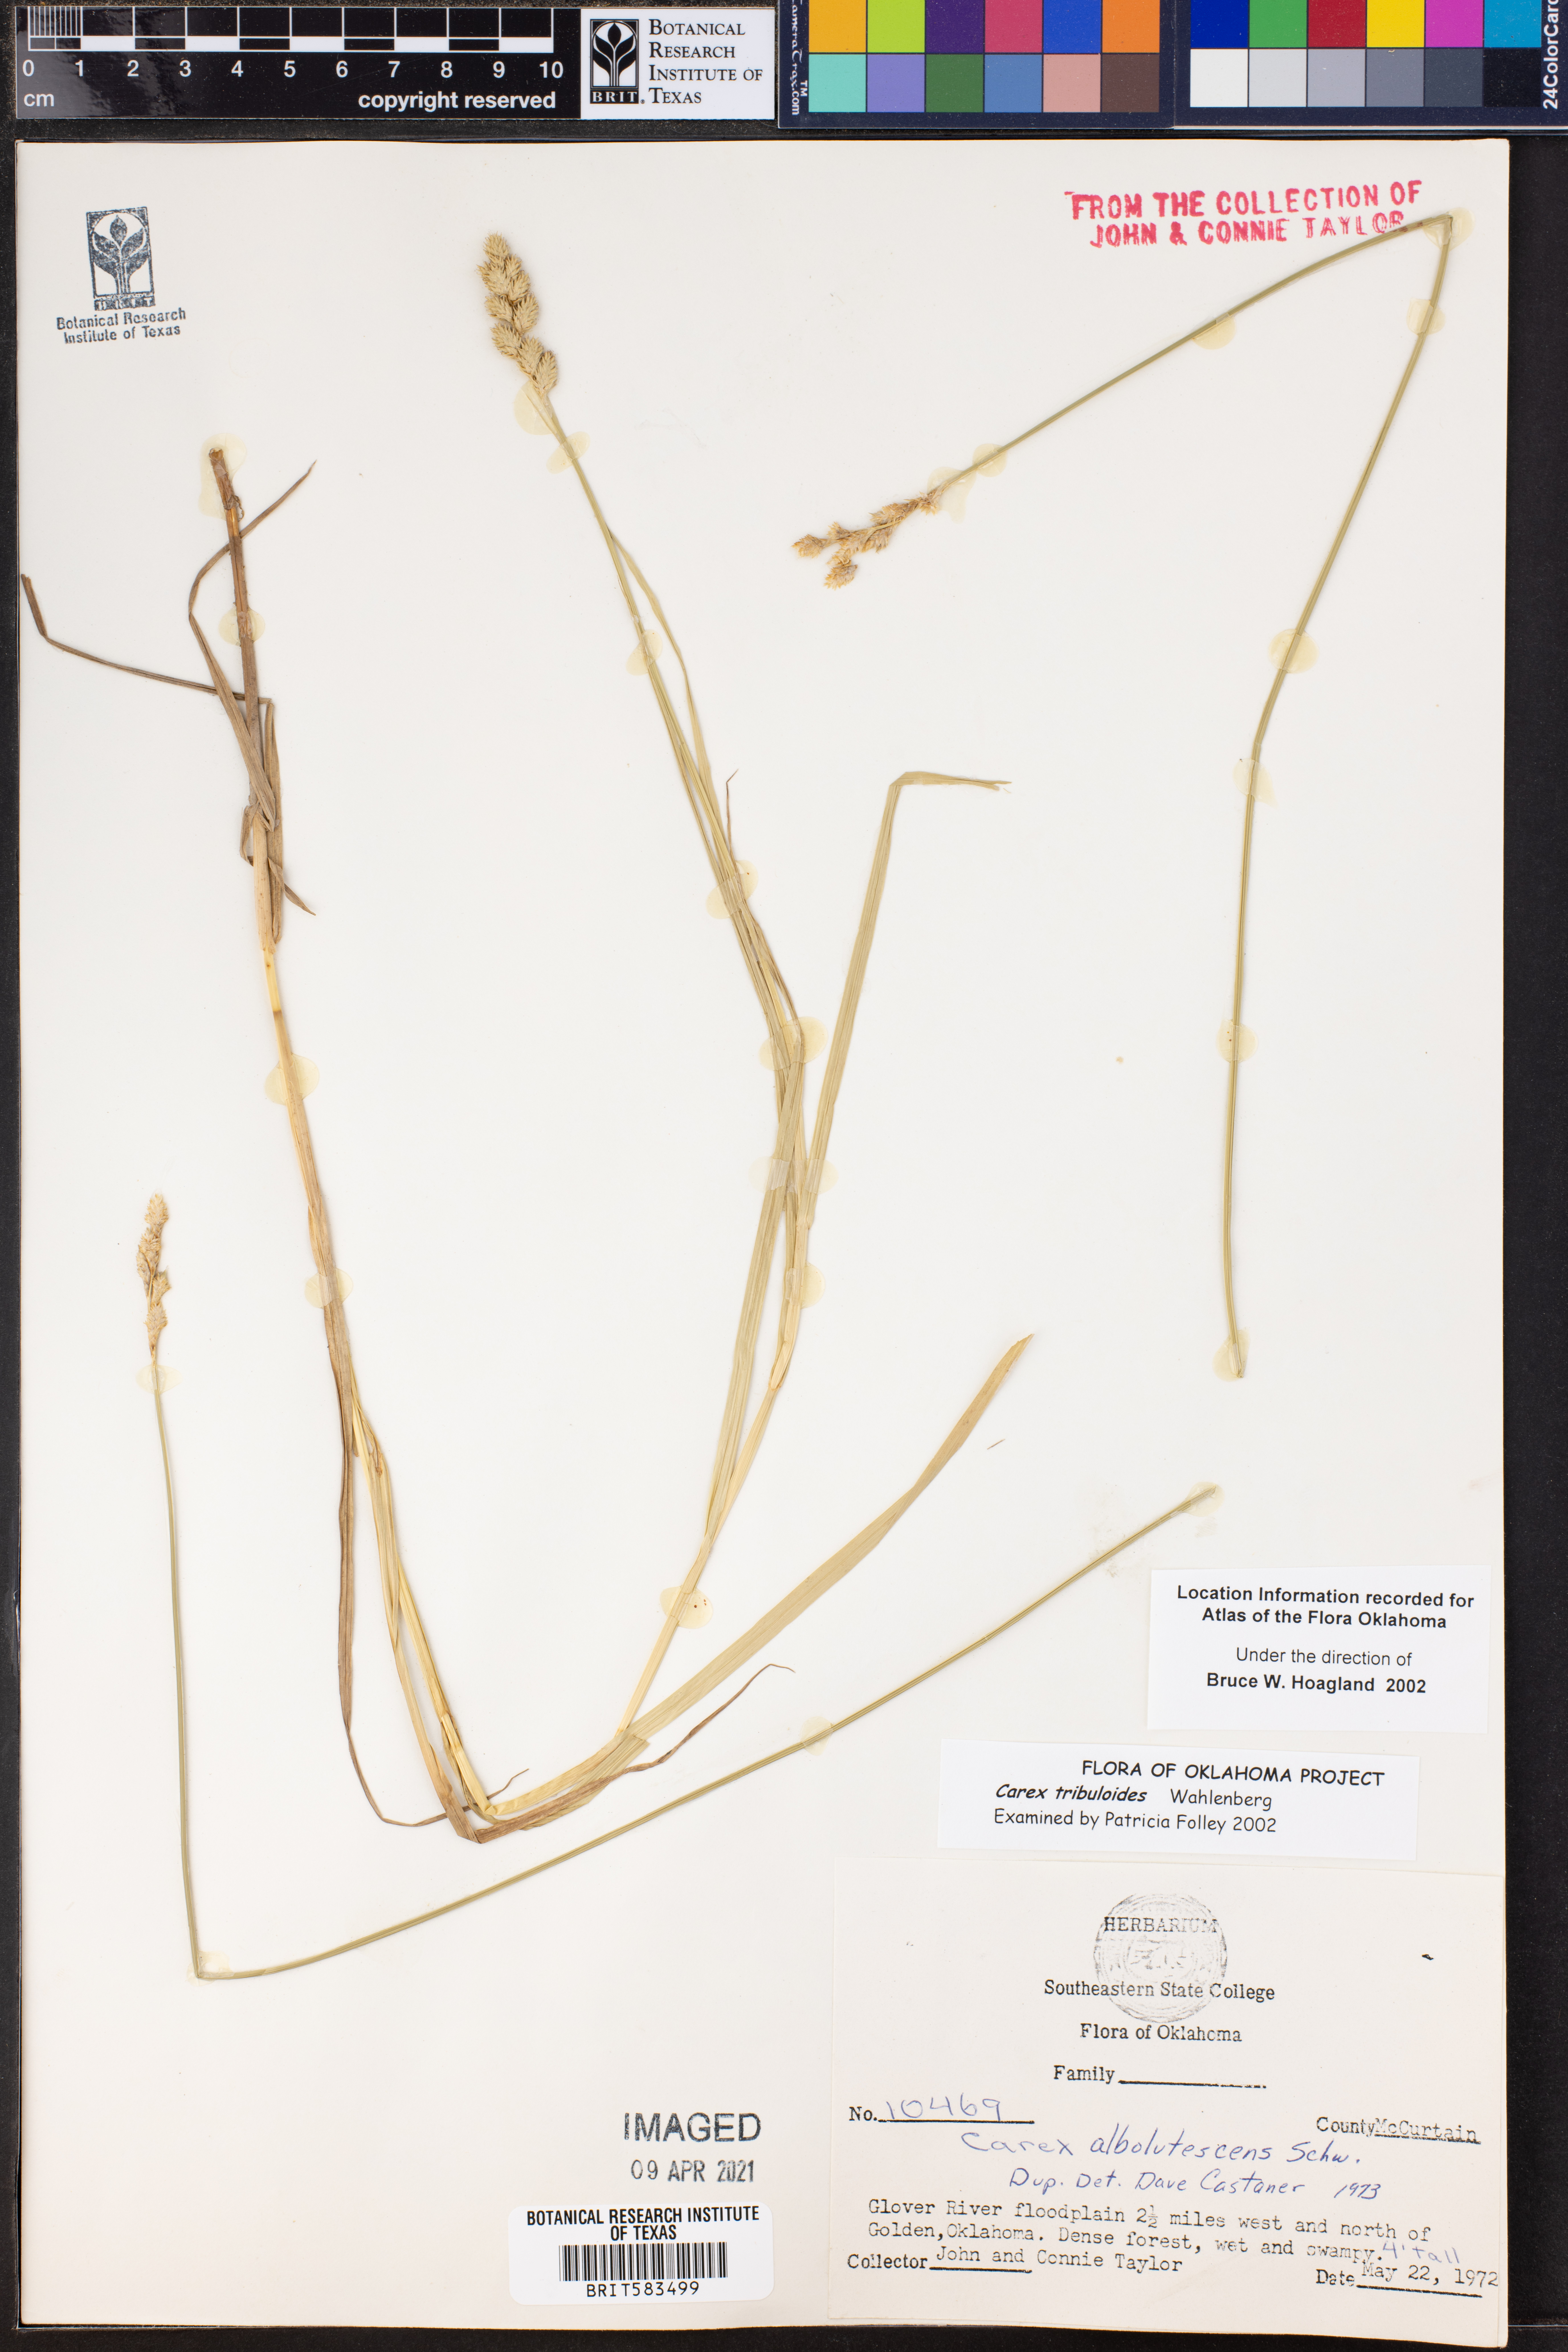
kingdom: Plantae
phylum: Tracheophyta
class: Liliopsida
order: Poales
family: Cyperaceae
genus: Carex
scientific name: Carex tribuloides
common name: Blunt broom sedge
